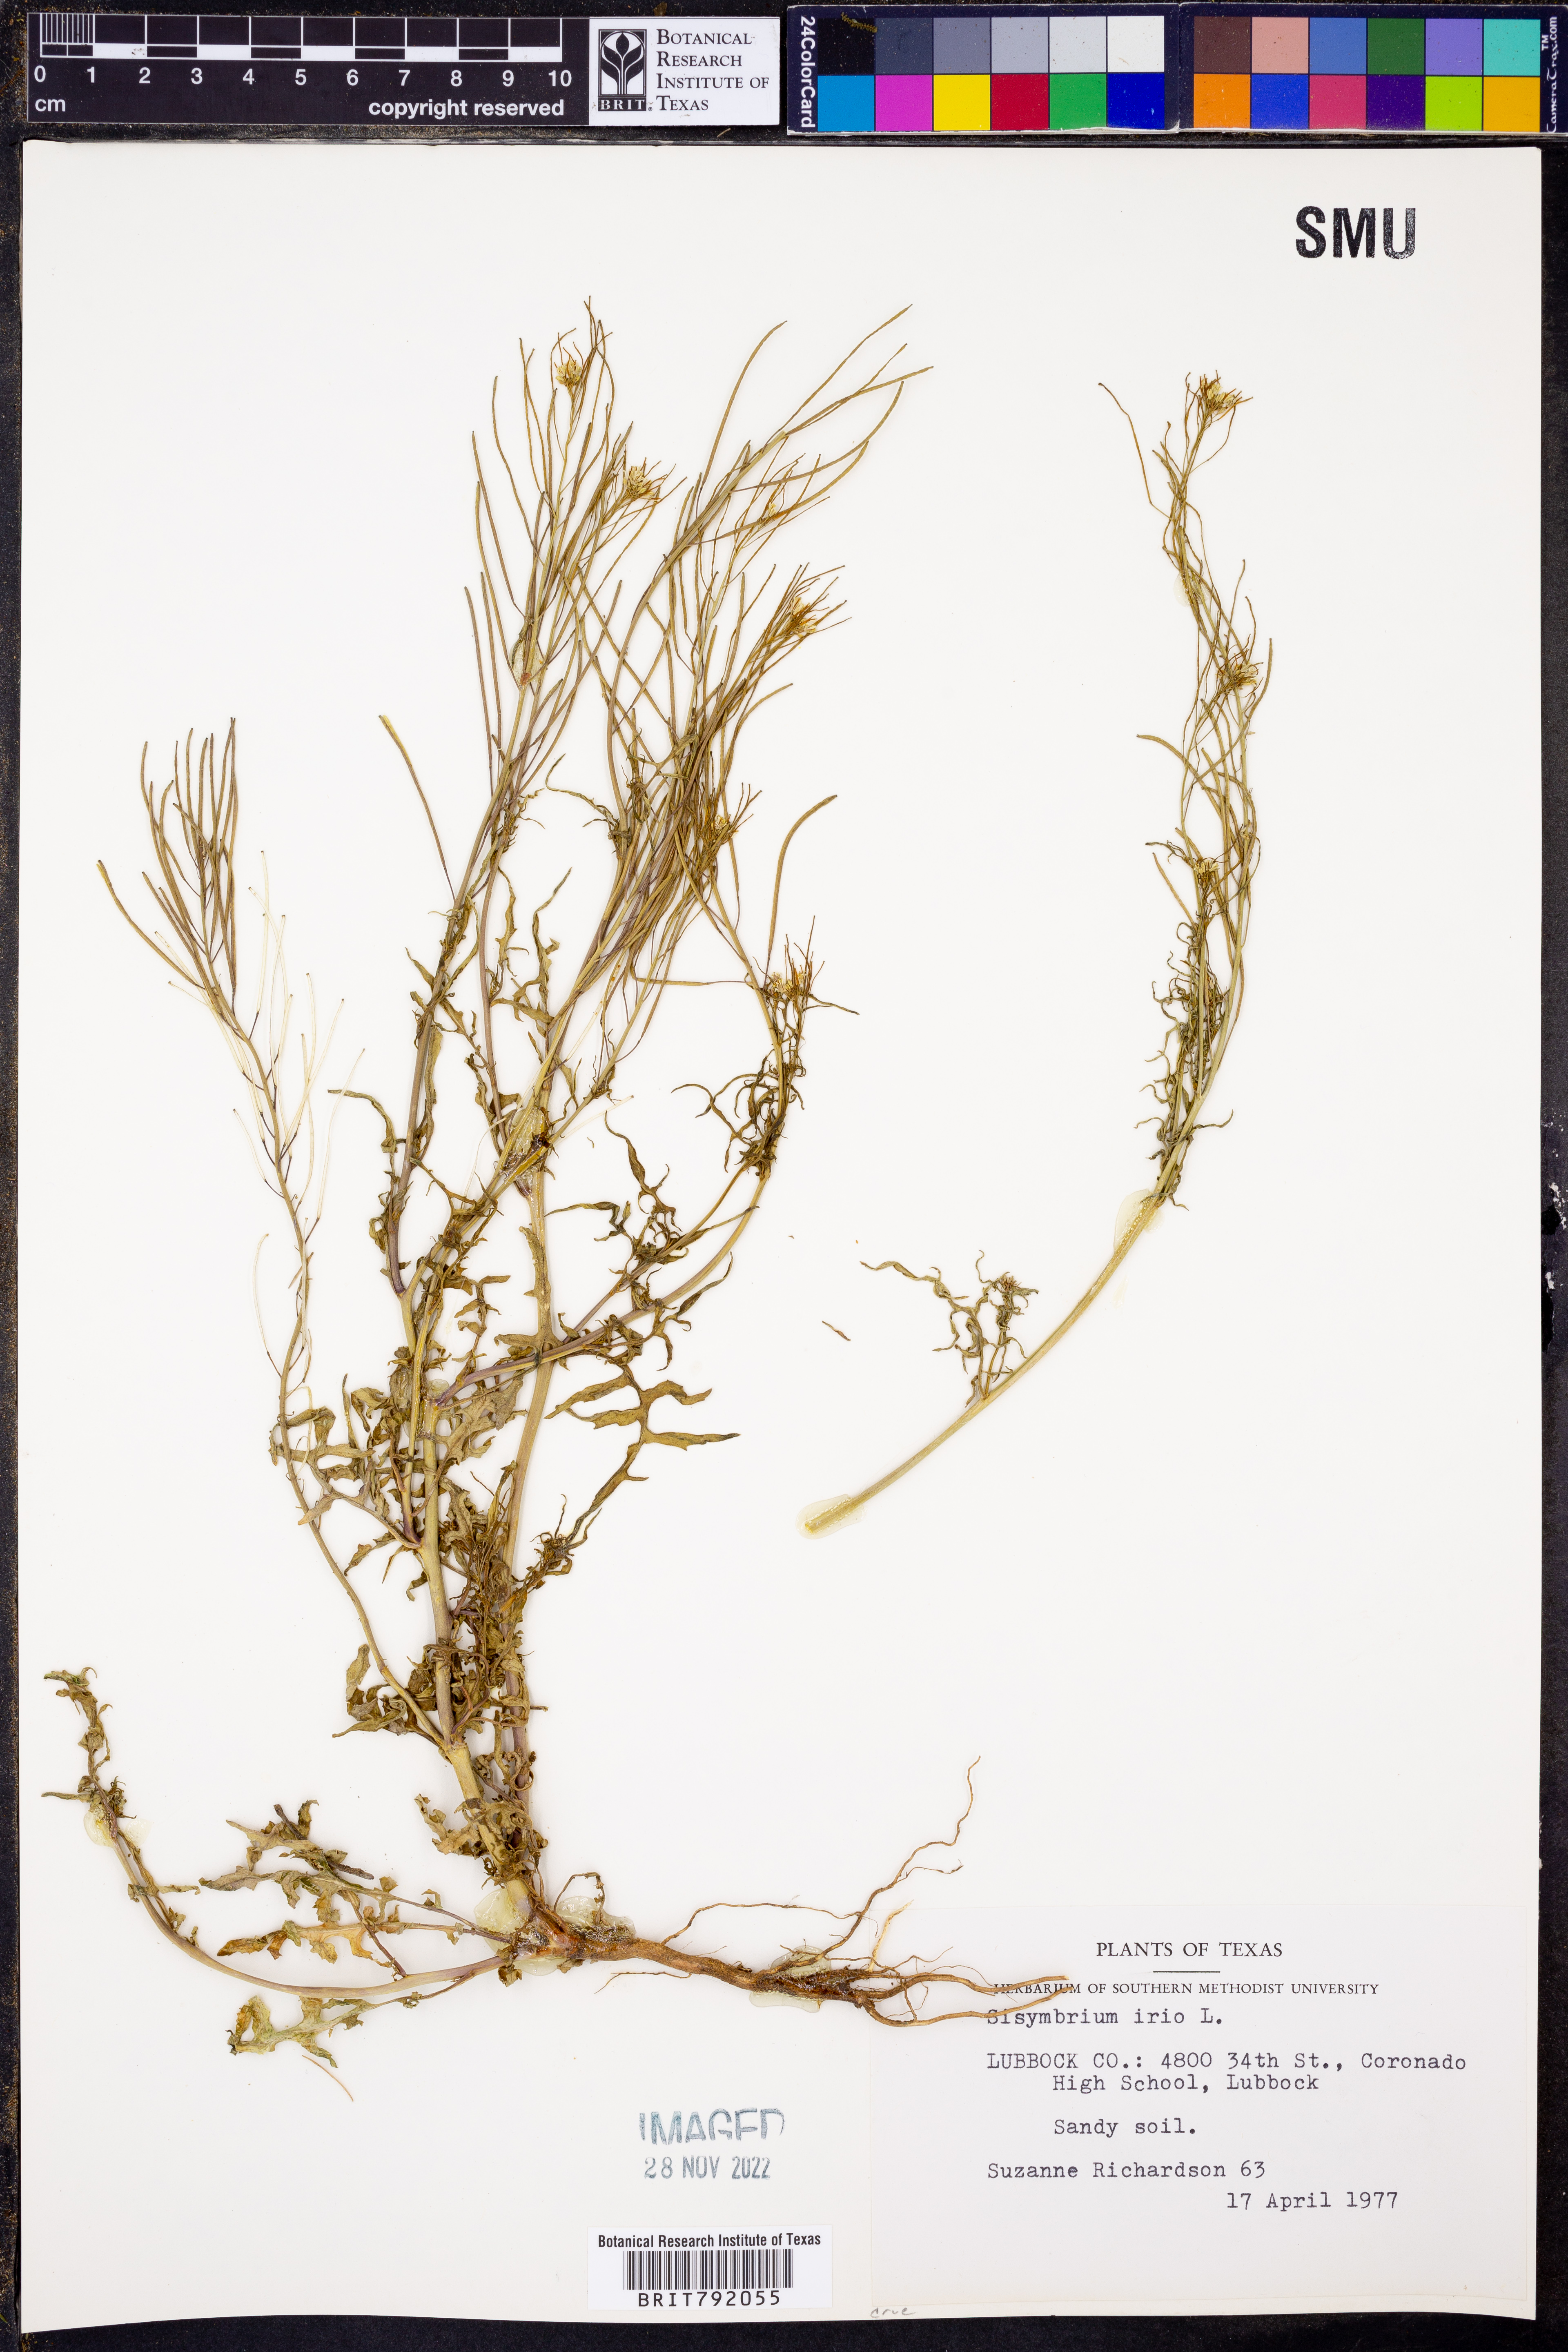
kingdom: Plantae
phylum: Tracheophyta
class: Magnoliopsida
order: Brassicales
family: Brassicaceae
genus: Sisymbrium
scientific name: Sisymbrium irio
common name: London rocket
